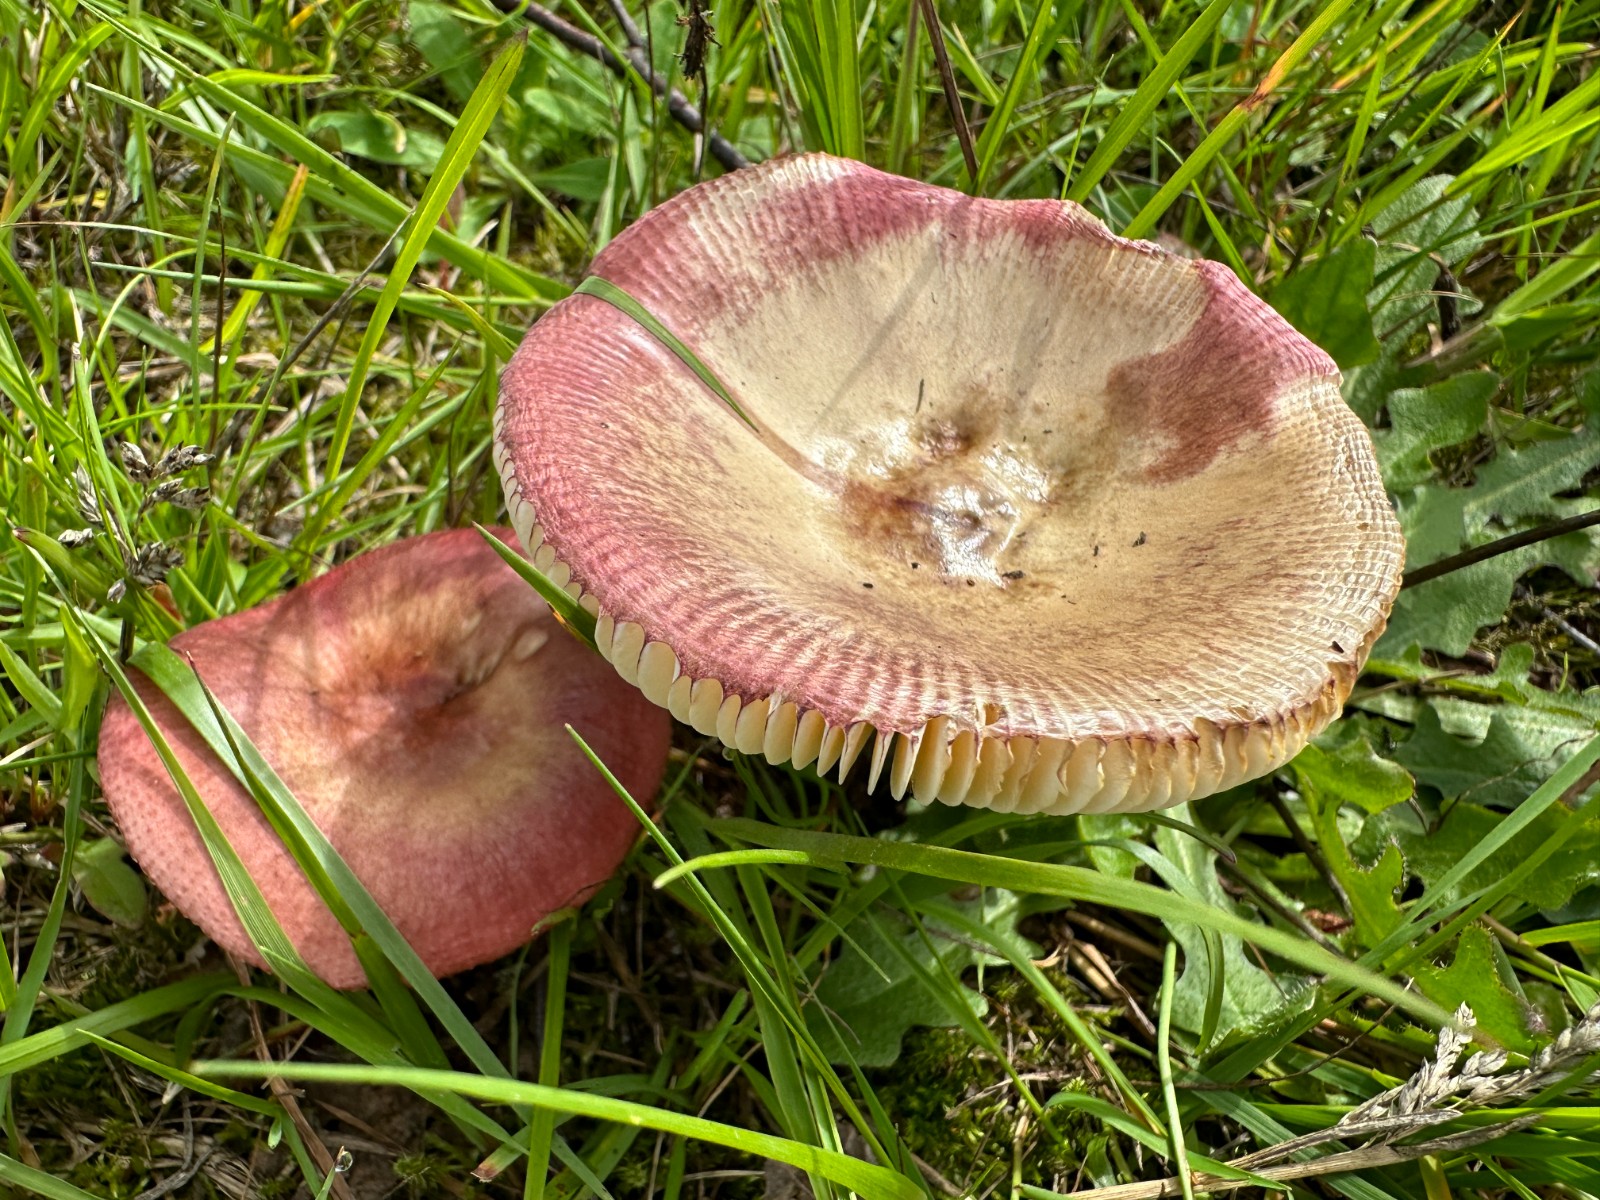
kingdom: Fungi
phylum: Basidiomycota
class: Agaricomycetes
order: Russulales
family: Russulaceae
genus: Russula
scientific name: Russula depallens
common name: falmende skørhat
